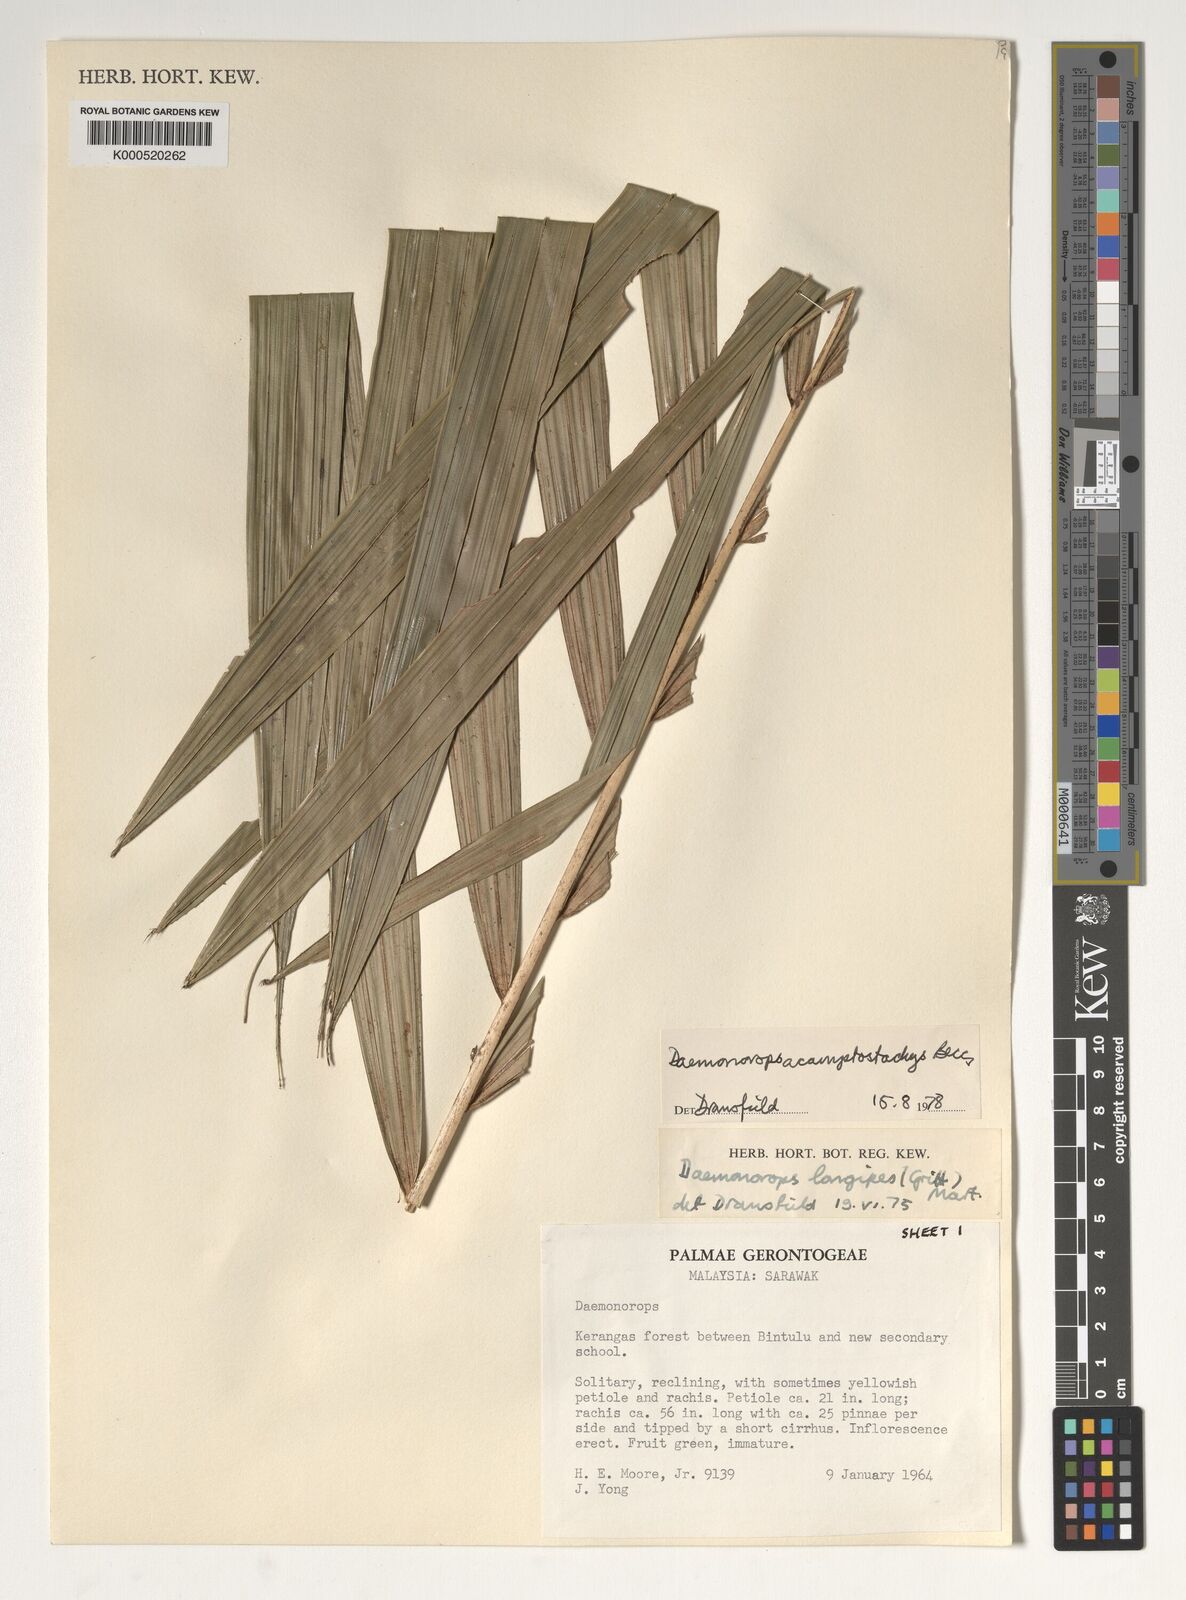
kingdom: Plantae
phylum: Tracheophyta
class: Liliopsida
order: Arecales
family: Arecaceae
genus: Calamus
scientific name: Calamus acamptostachys
